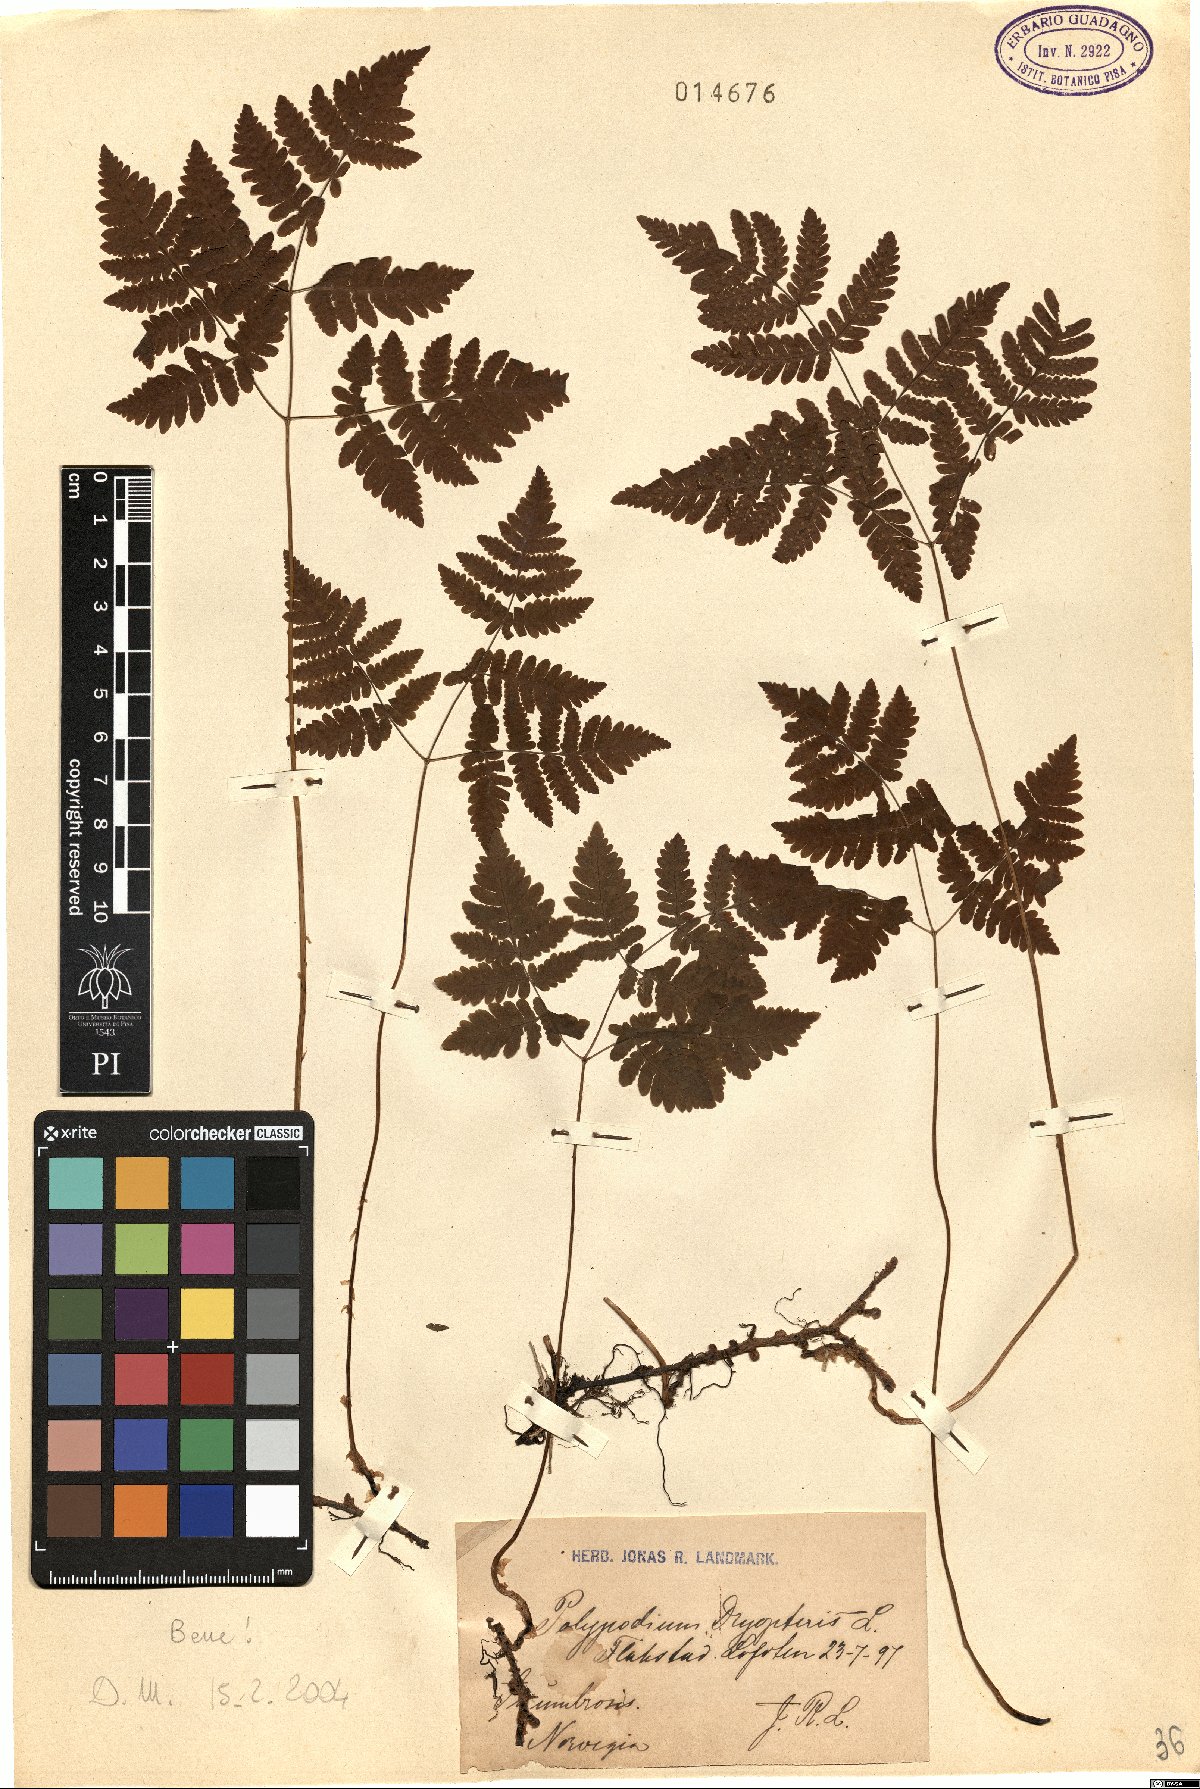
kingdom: Plantae
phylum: Tracheophyta
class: Polypodiopsida
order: Polypodiales
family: Cystopteridaceae
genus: Gymnocarpium
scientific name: Gymnocarpium dryopteris
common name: Oak fern
